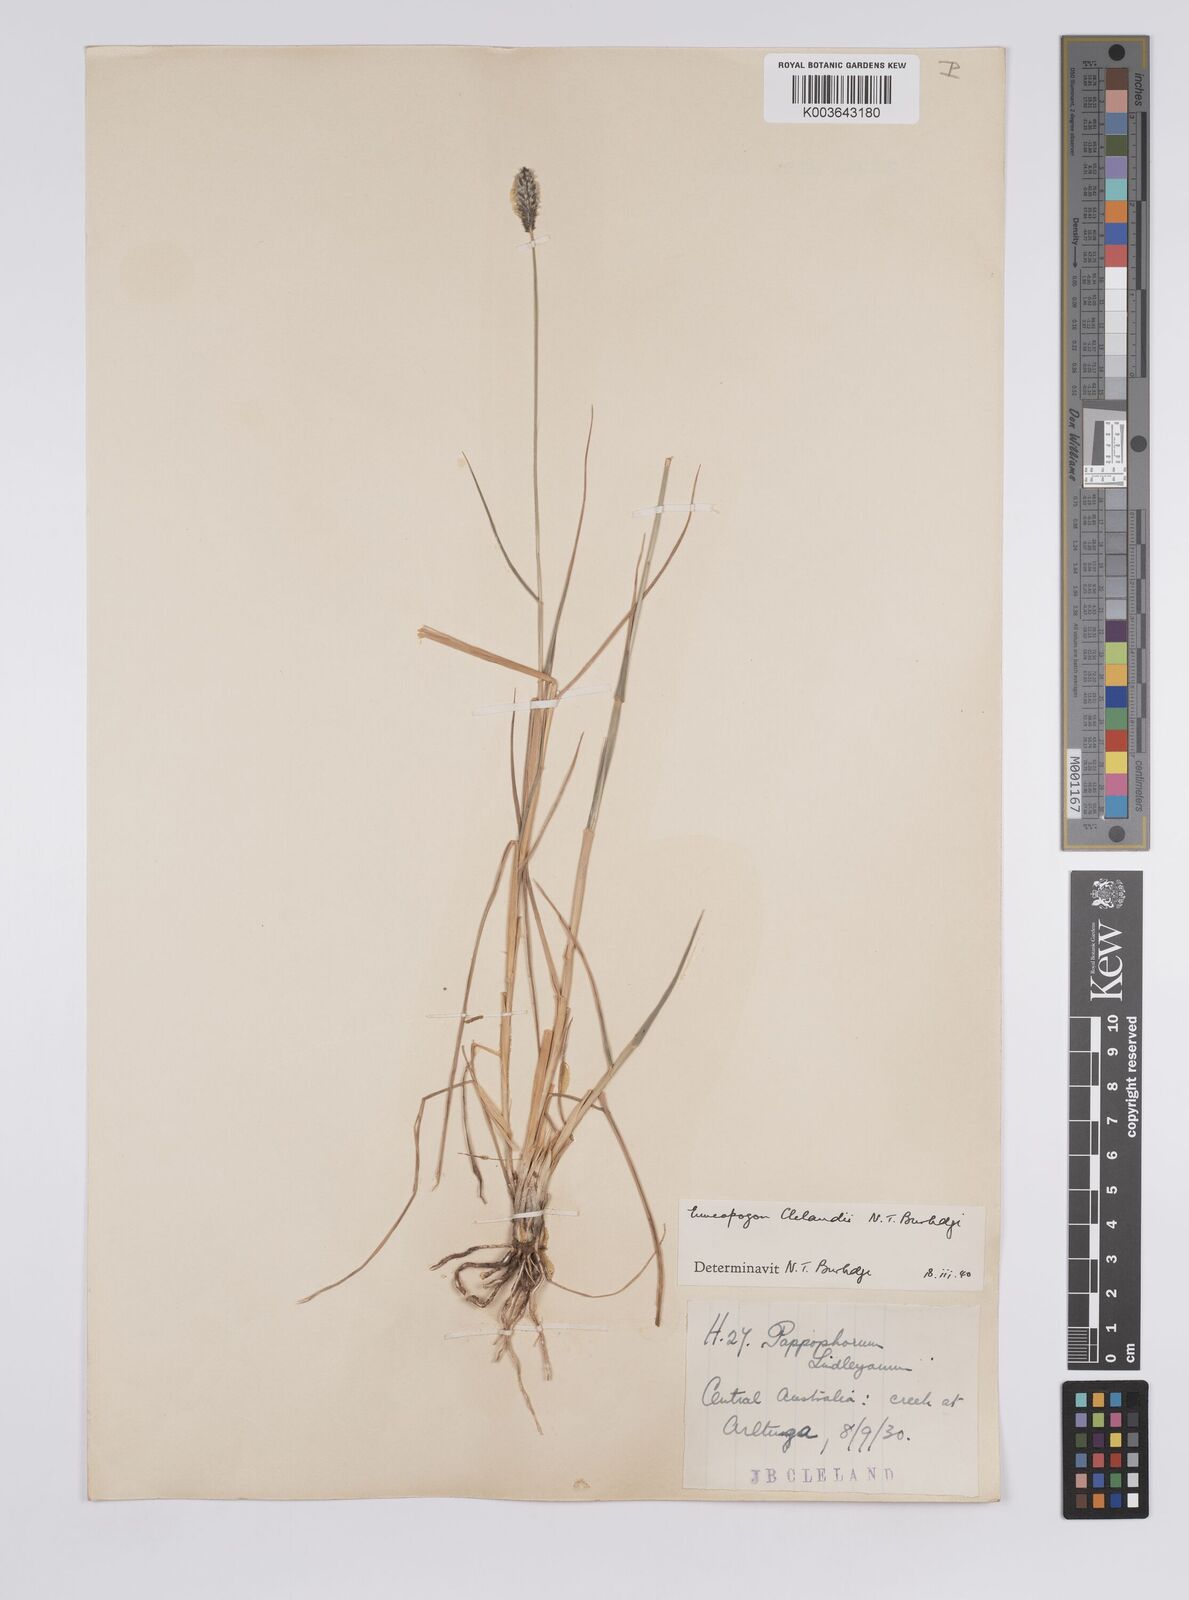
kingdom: Plantae
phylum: Tracheophyta
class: Liliopsida
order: Poales
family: Poaceae
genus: Enneapogon
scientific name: Enneapogon robustissimus
